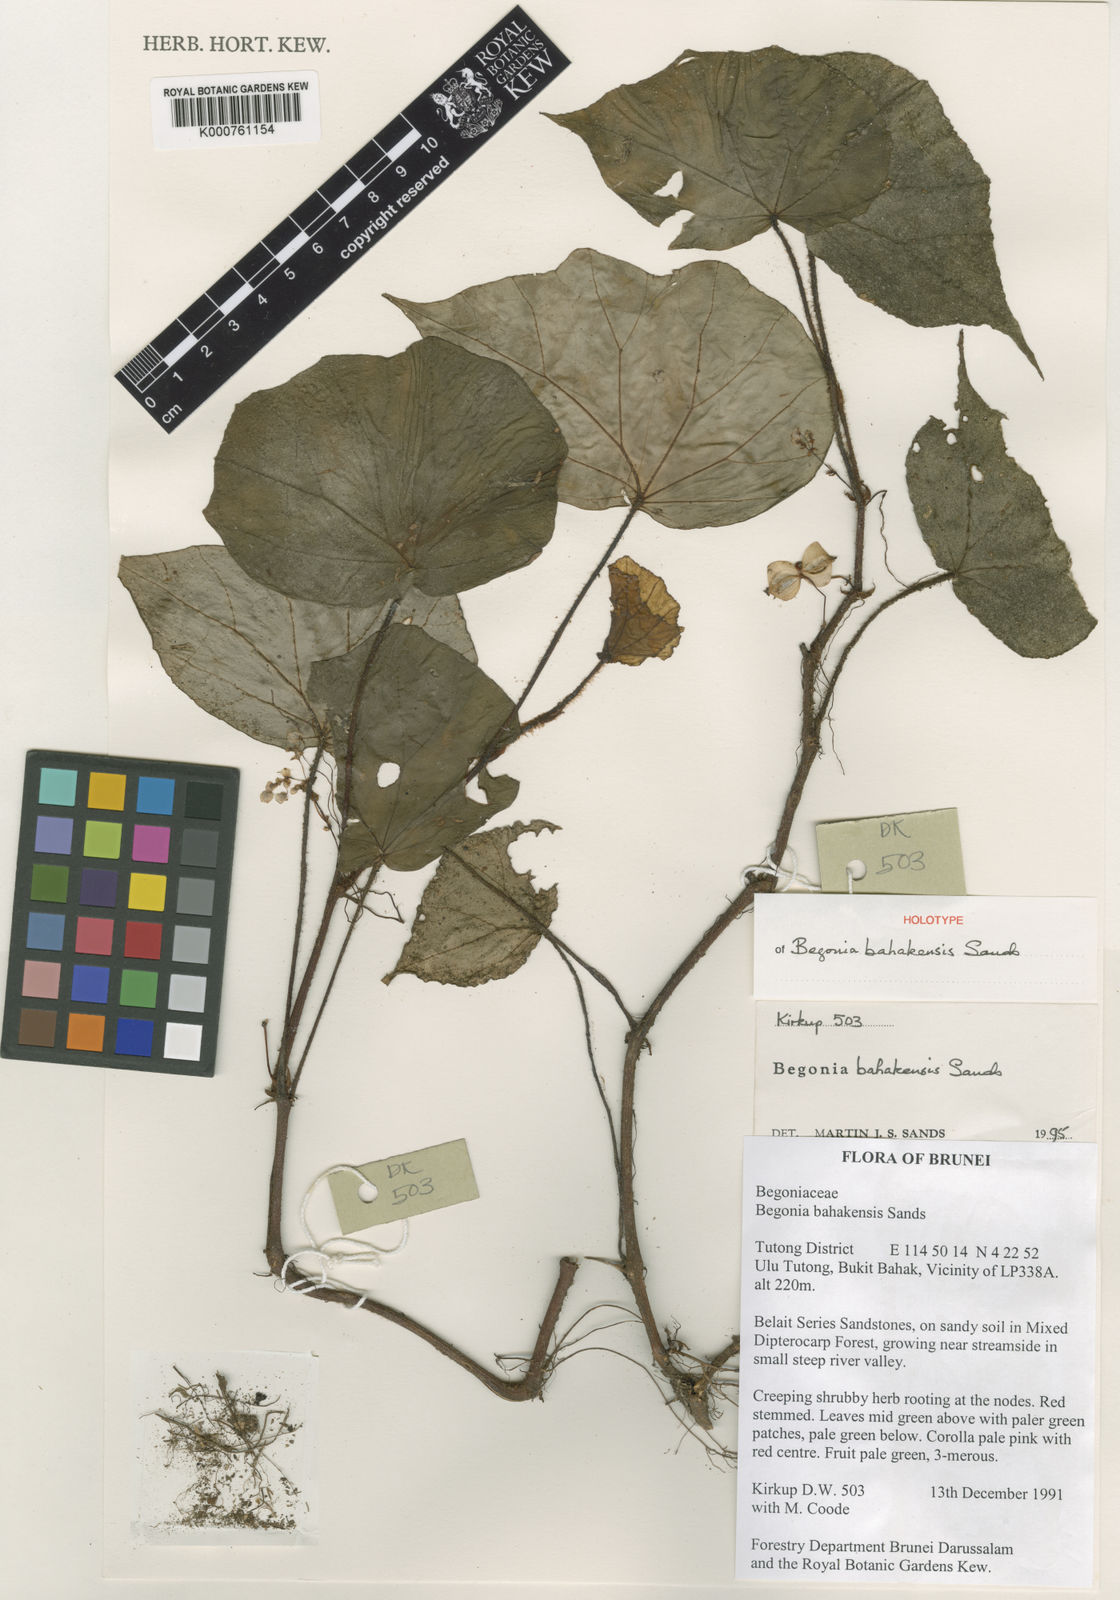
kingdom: Plantae
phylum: Tracheophyta
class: Magnoliopsida
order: Cucurbitales
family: Begoniaceae
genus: Begonia
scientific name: Begonia bahakensis
